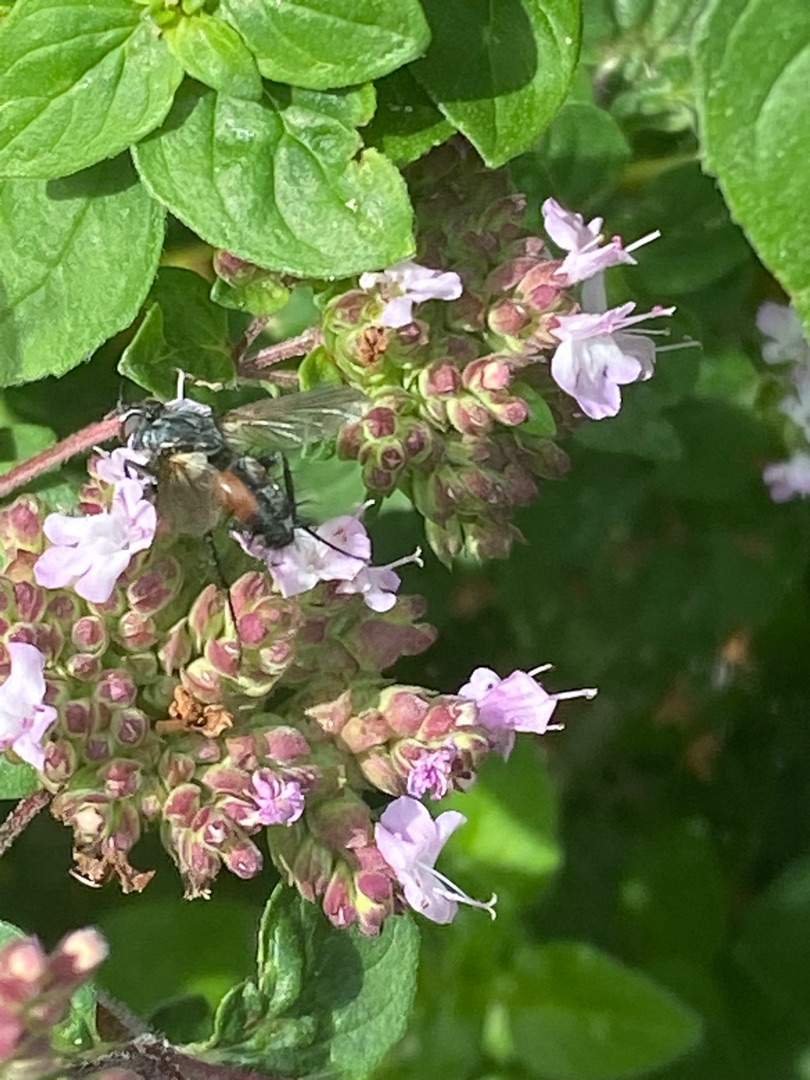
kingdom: Animalia
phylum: Arthropoda
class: Insecta
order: Diptera
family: Tachinidae
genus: Eriothrix
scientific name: Eriothrix rufomaculatus
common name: Rød snylteflue
